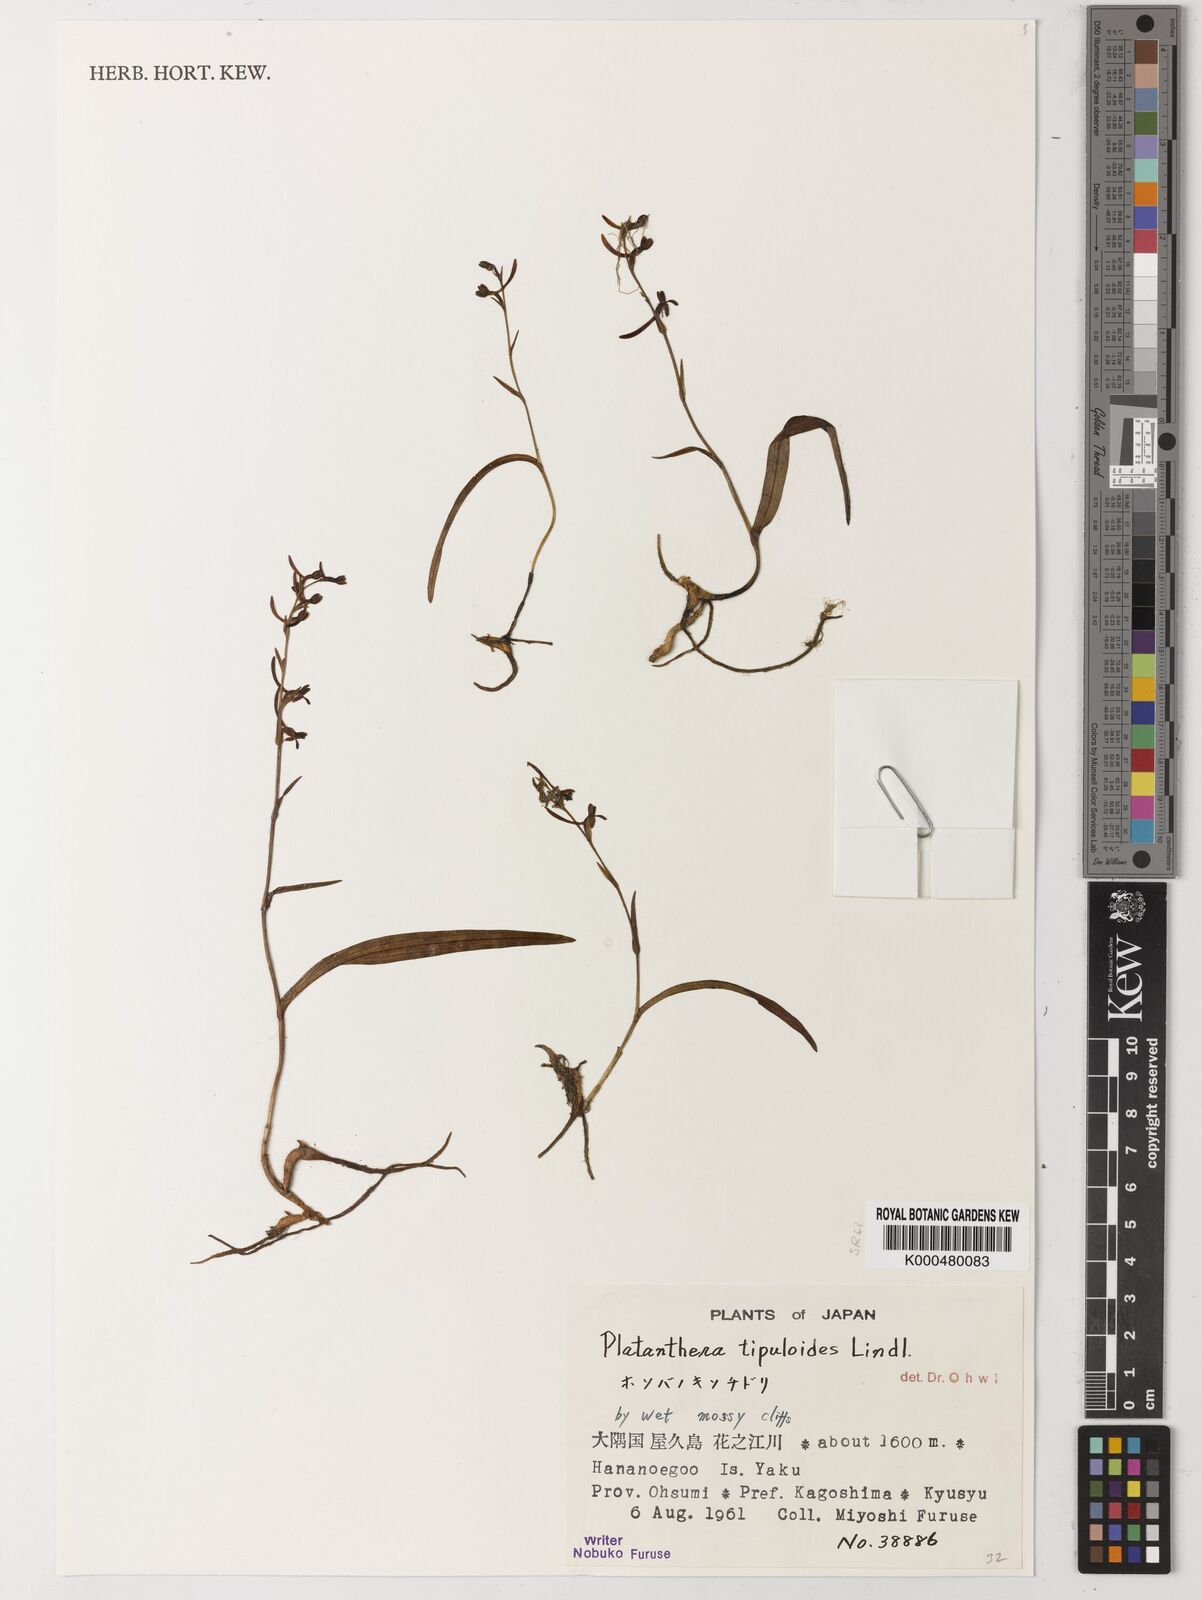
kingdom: Plantae
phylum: Tracheophyta
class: Liliopsida
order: Asparagales
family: Orchidaceae
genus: Platanthera
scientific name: Platanthera tipuloides
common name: Aleutian bog orchid
